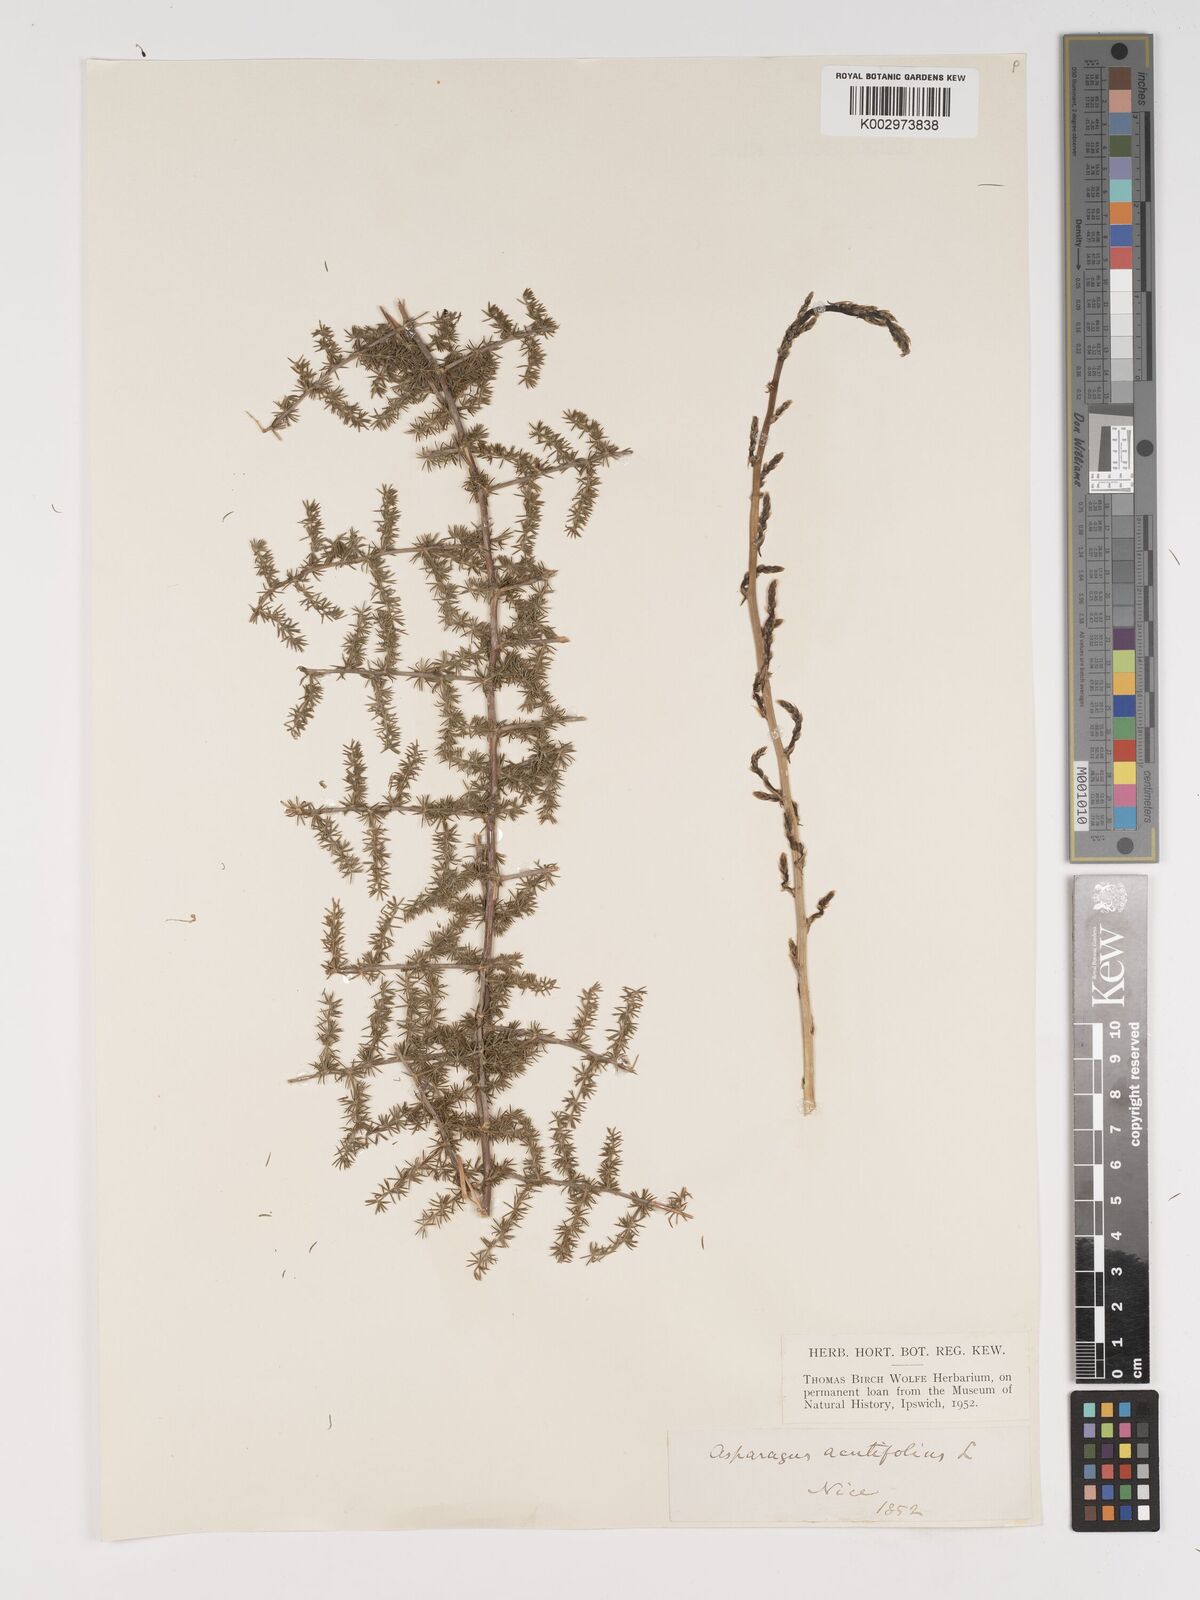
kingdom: Plantae
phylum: Tracheophyta
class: Liliopsida
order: Asparagales
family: Asparagaceae
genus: Asparagus
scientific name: Asparagus aethiopicus
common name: Sprenger's asparagus fern
